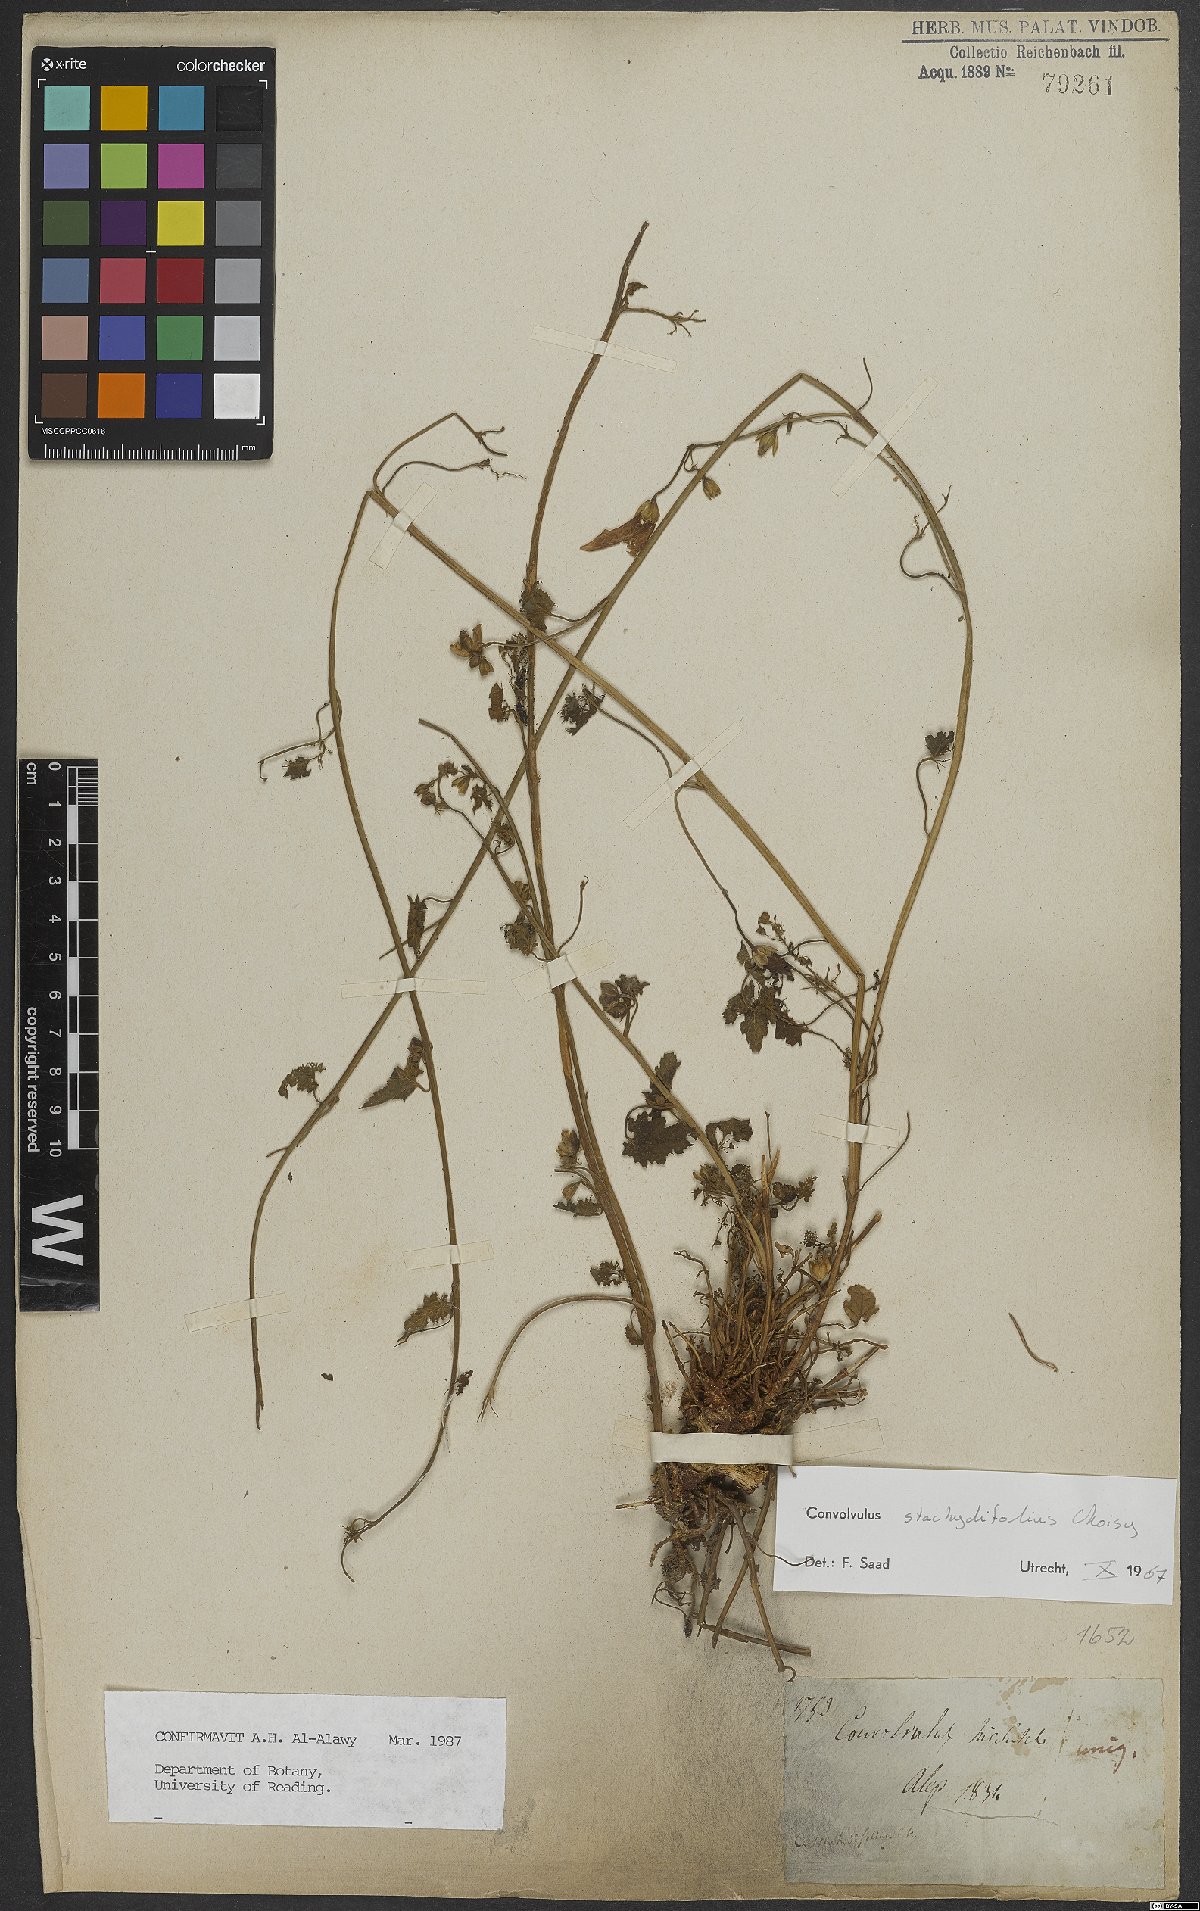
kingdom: Plantae
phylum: Tracheophyta
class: Magnoliopsida
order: Solanales
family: Convolvulaceae
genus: Convolvulus
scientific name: Convolvulus stachydifolius
